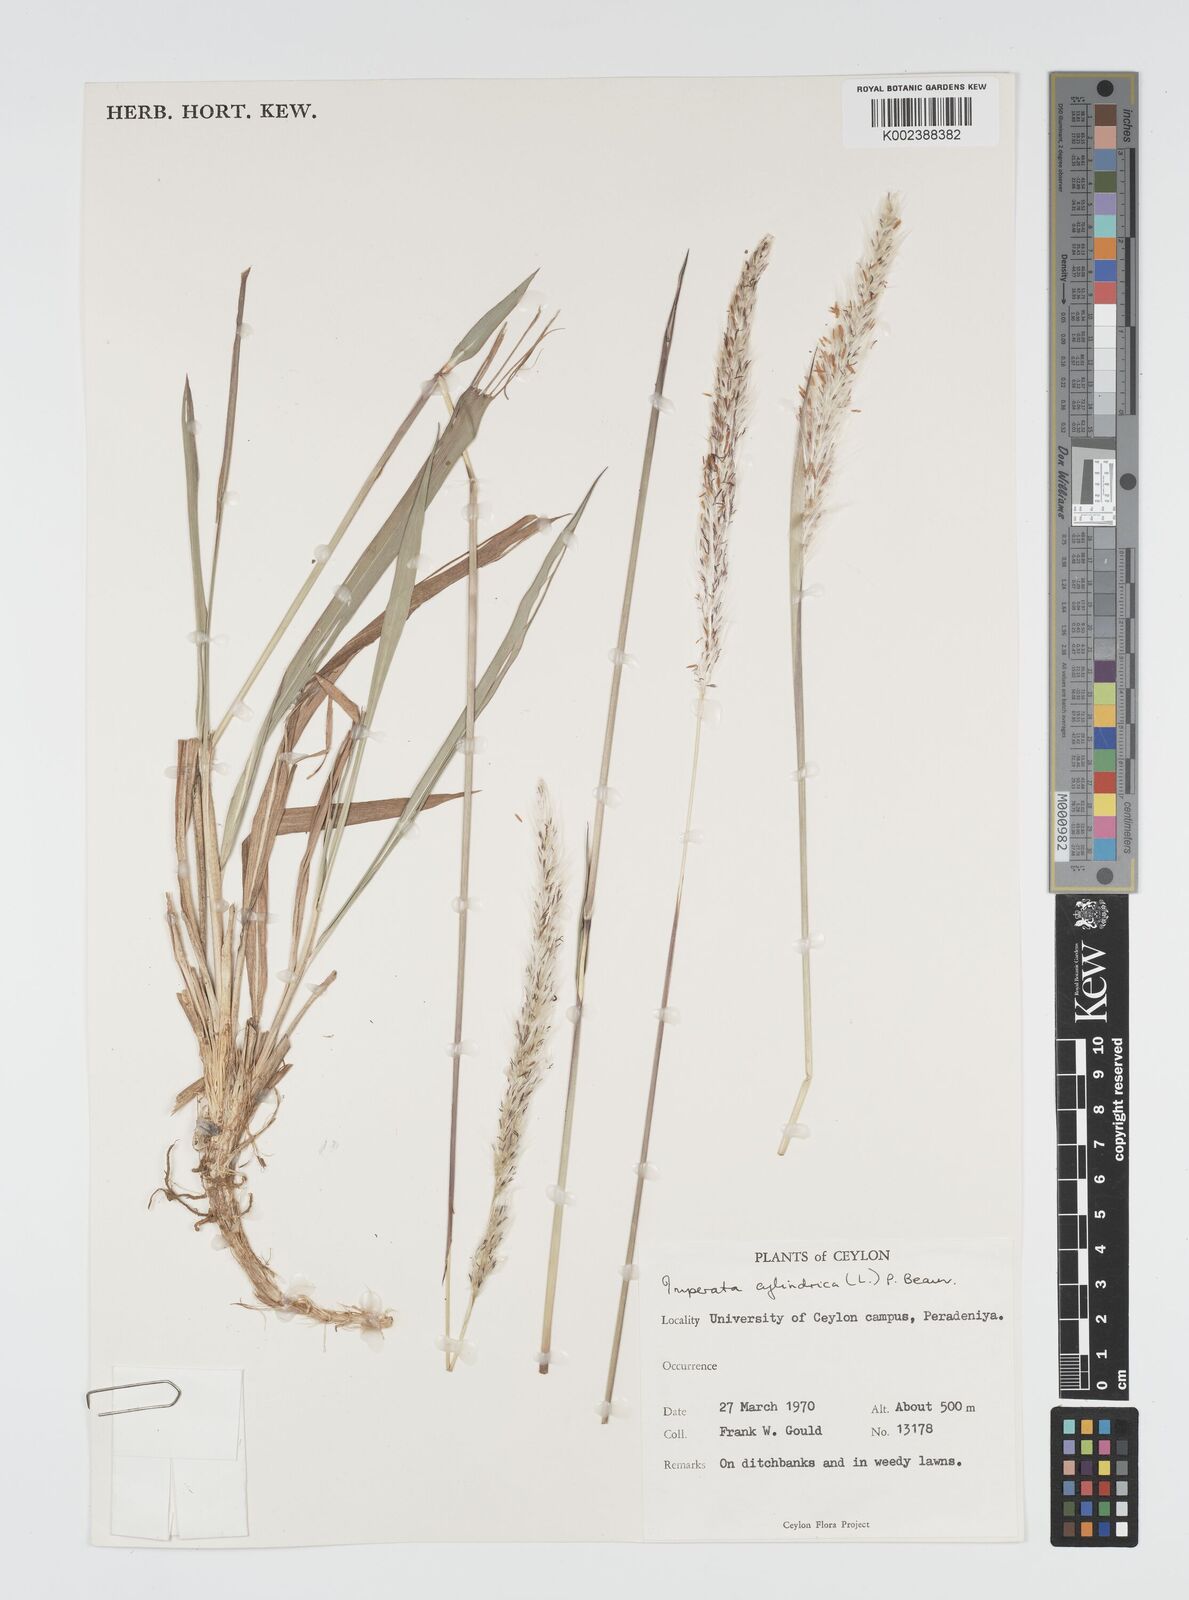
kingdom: Plantae
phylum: Tracheophyta
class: Liliopsida
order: Poales
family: Poaceae
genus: Imperata
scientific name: Imperata cylindrica
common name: Cogongrass
